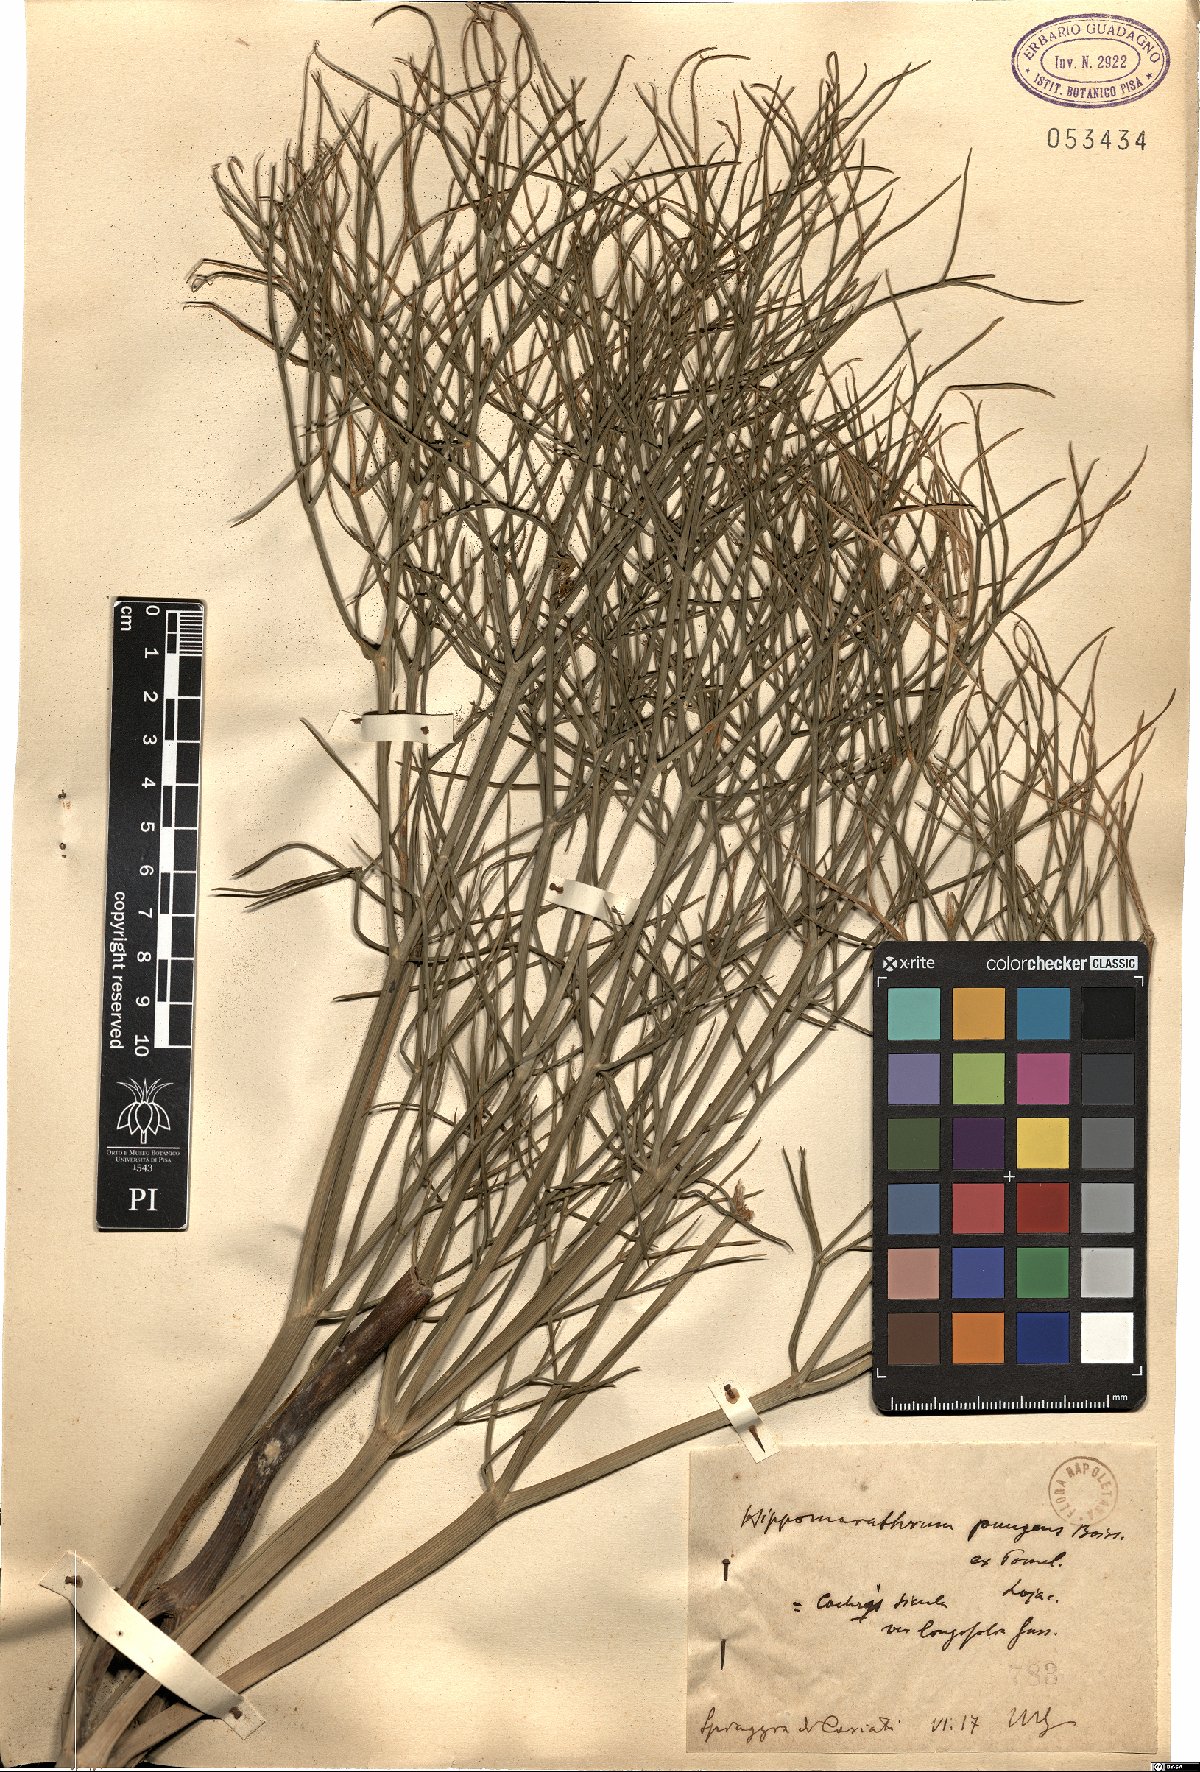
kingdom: Plantae
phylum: Tracheophyta
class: Magnoliopsida
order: Apiales
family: Apiaceae
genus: Cachrys
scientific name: Cachrys pungens
